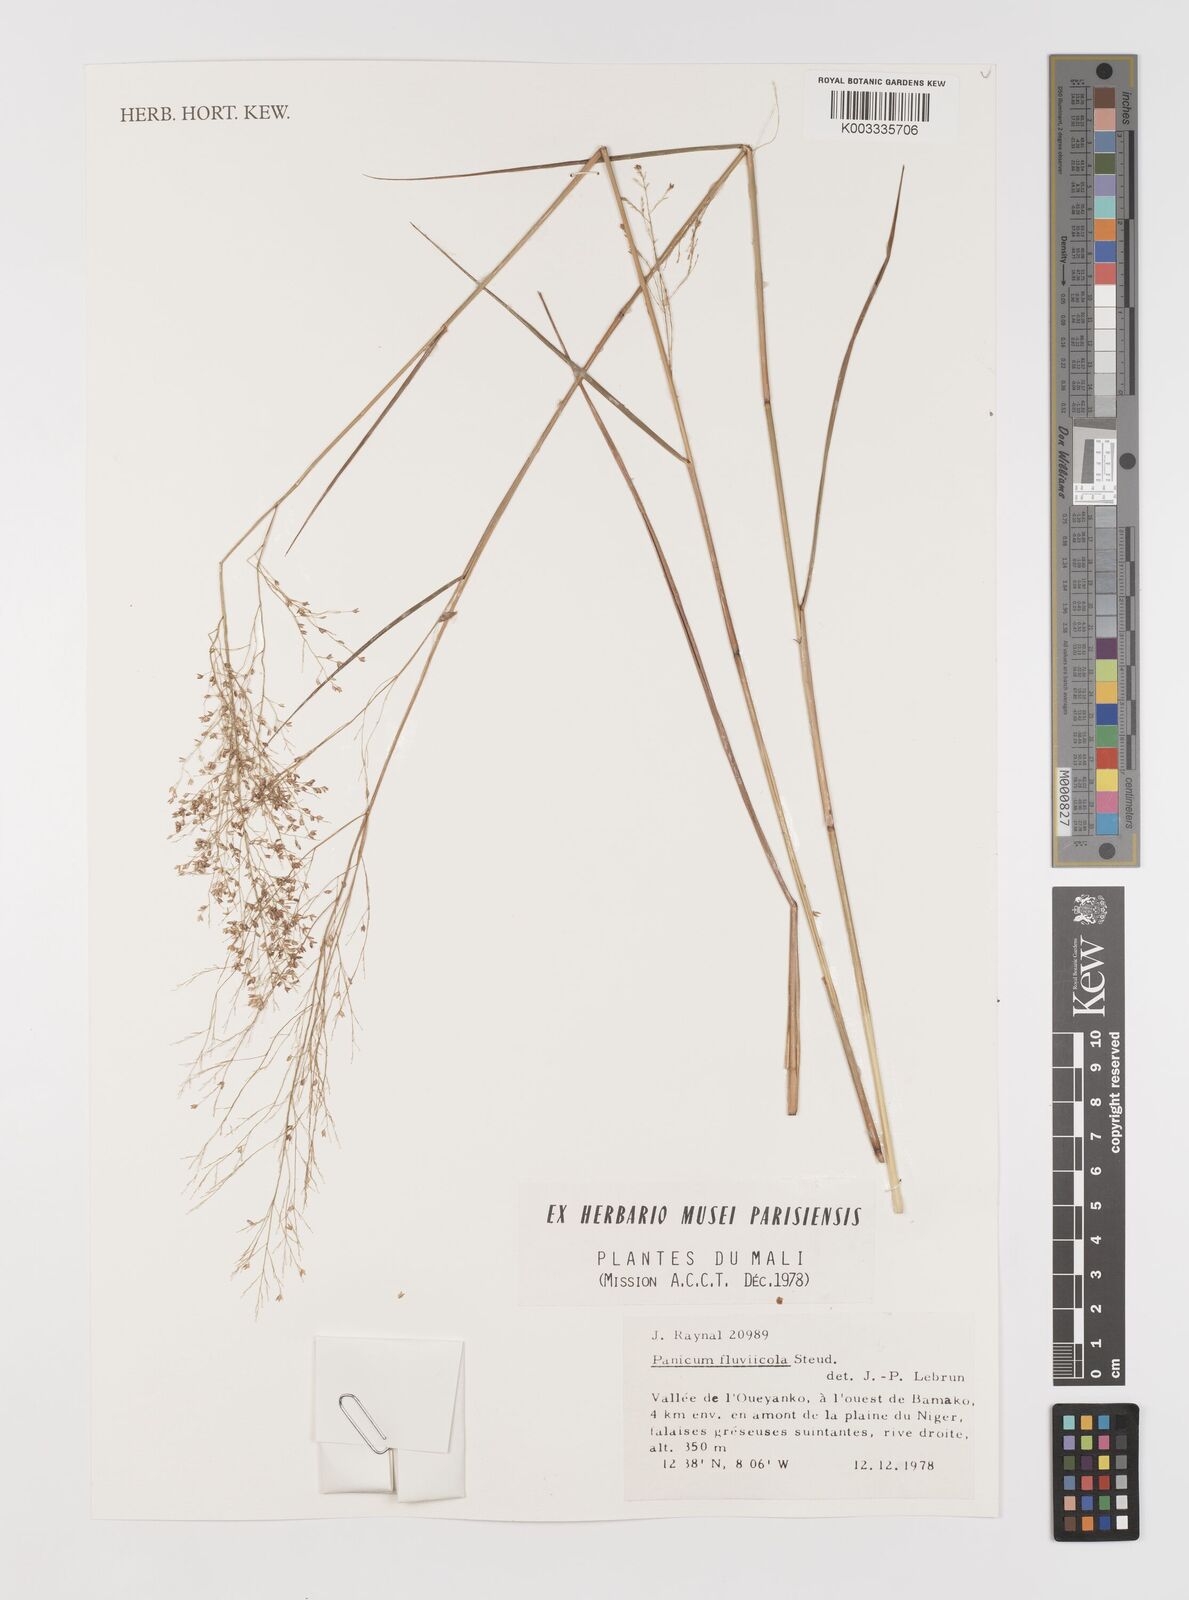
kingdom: Plantae
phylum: Tracheophyta
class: Liliopsida
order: Poales
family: Poaceae
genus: Panicum
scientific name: Panicum fluviicola
